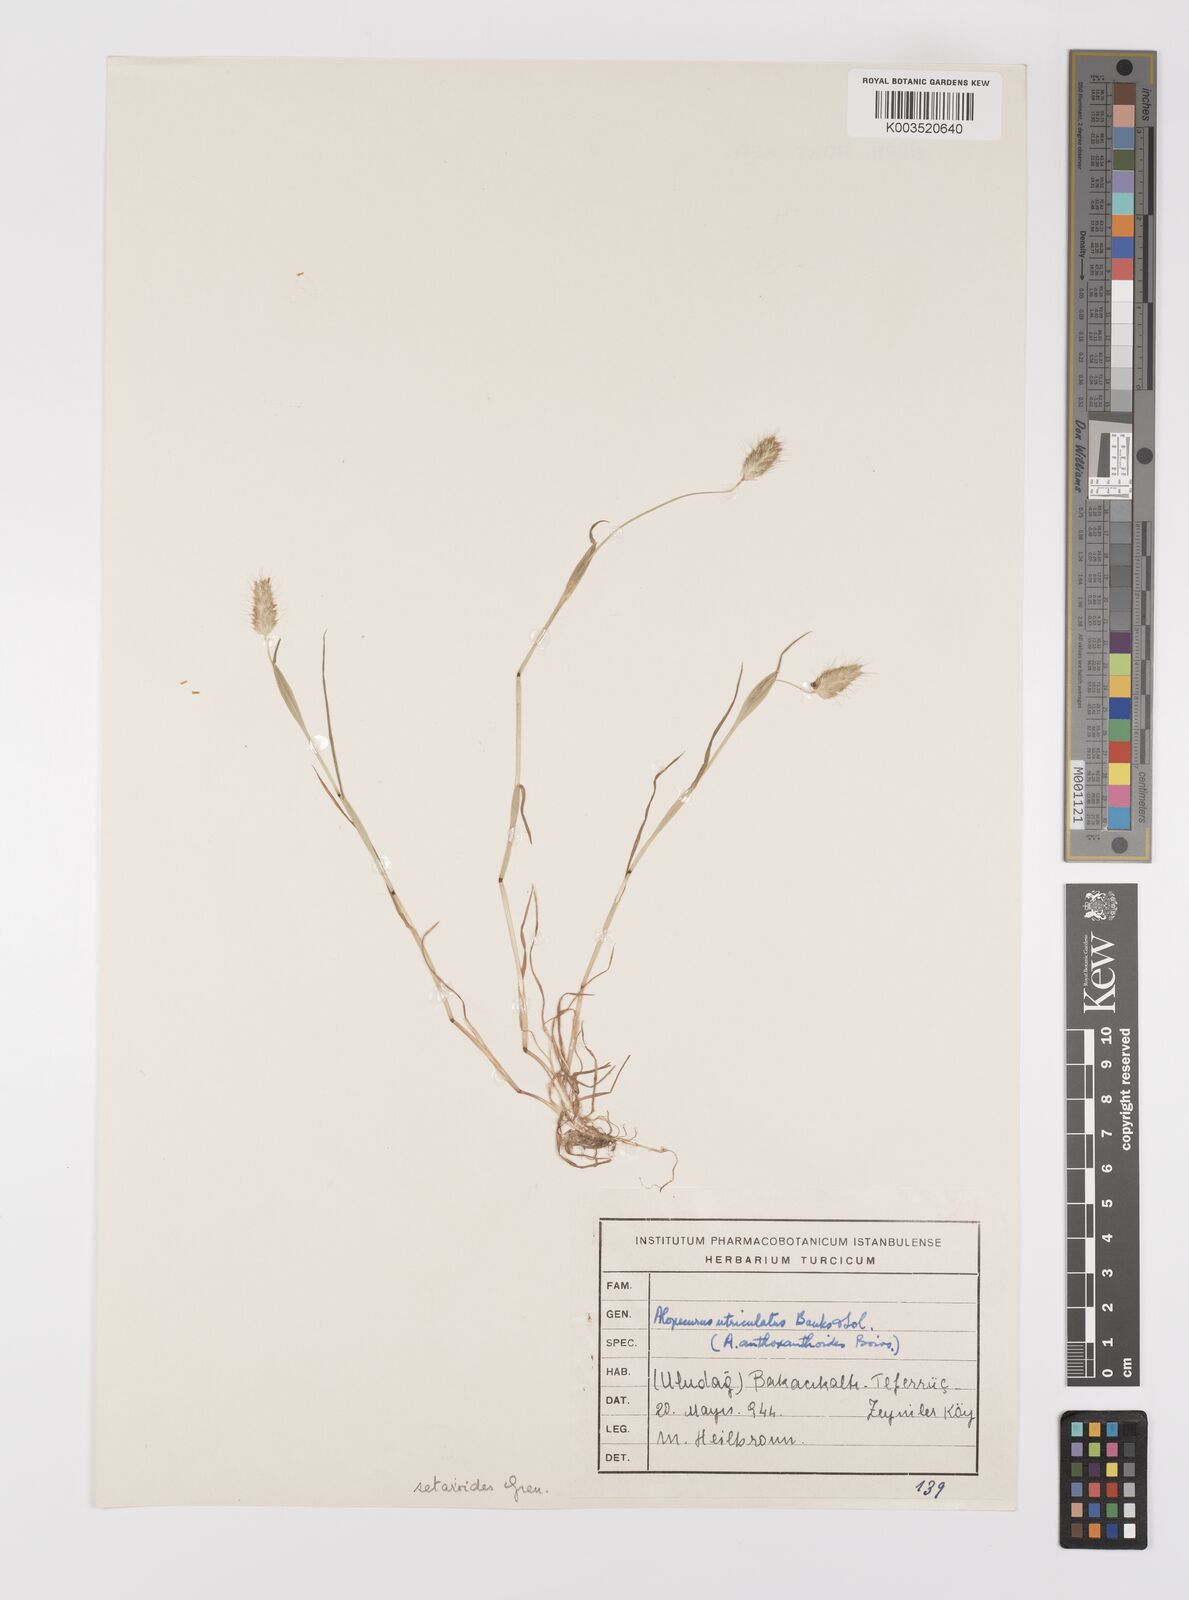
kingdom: Plantae
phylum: Tracheophyta
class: Liliopsida
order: Poales
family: Poaceae
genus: Alopecurus
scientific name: Alopecurus setarioides
